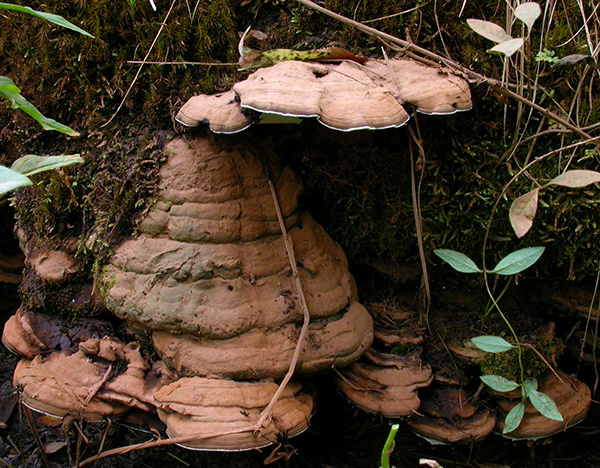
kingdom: Fungi
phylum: Basidiomycota
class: Agaricomycetes
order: Polyporales
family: Polyporaceae
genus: Ganoderma
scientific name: Ganoderma applanatum
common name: flad lakporesvamp
